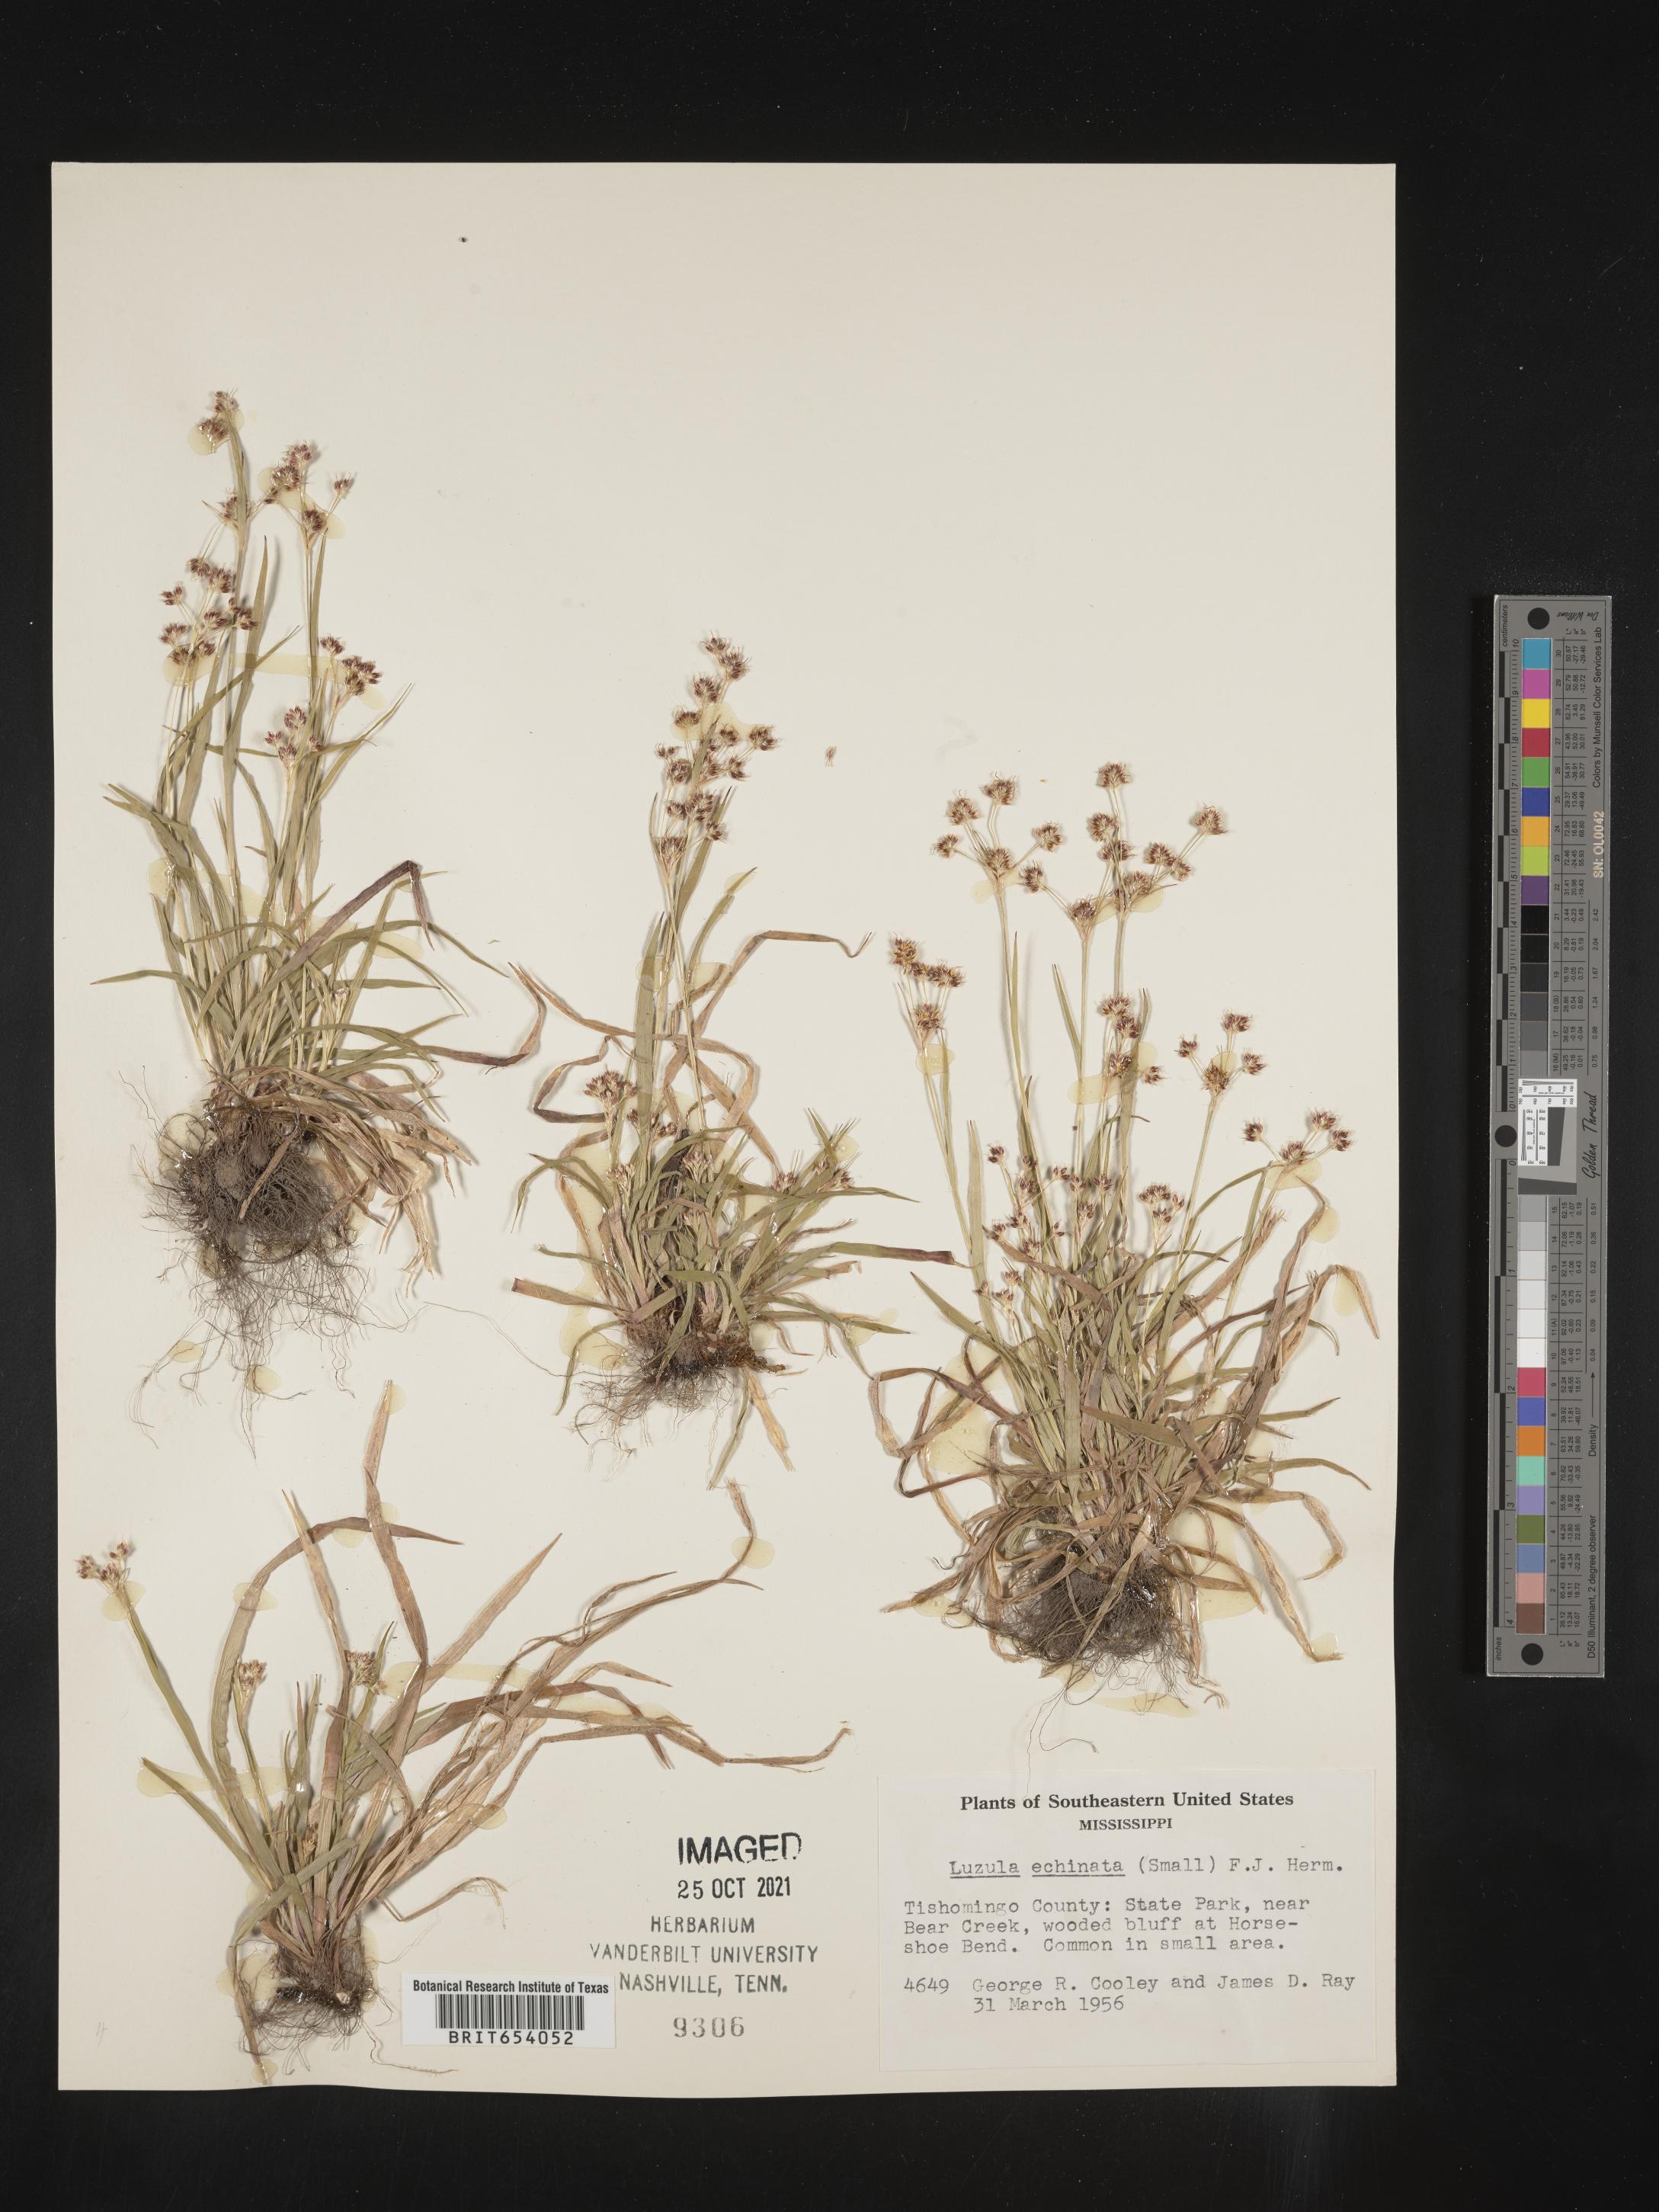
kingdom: Plantae
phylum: Tracheophyta
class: Liliopsida
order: Poales
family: Juncaceae
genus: Luzula
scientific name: Luzula echinata
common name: Hedgehog woodrush
